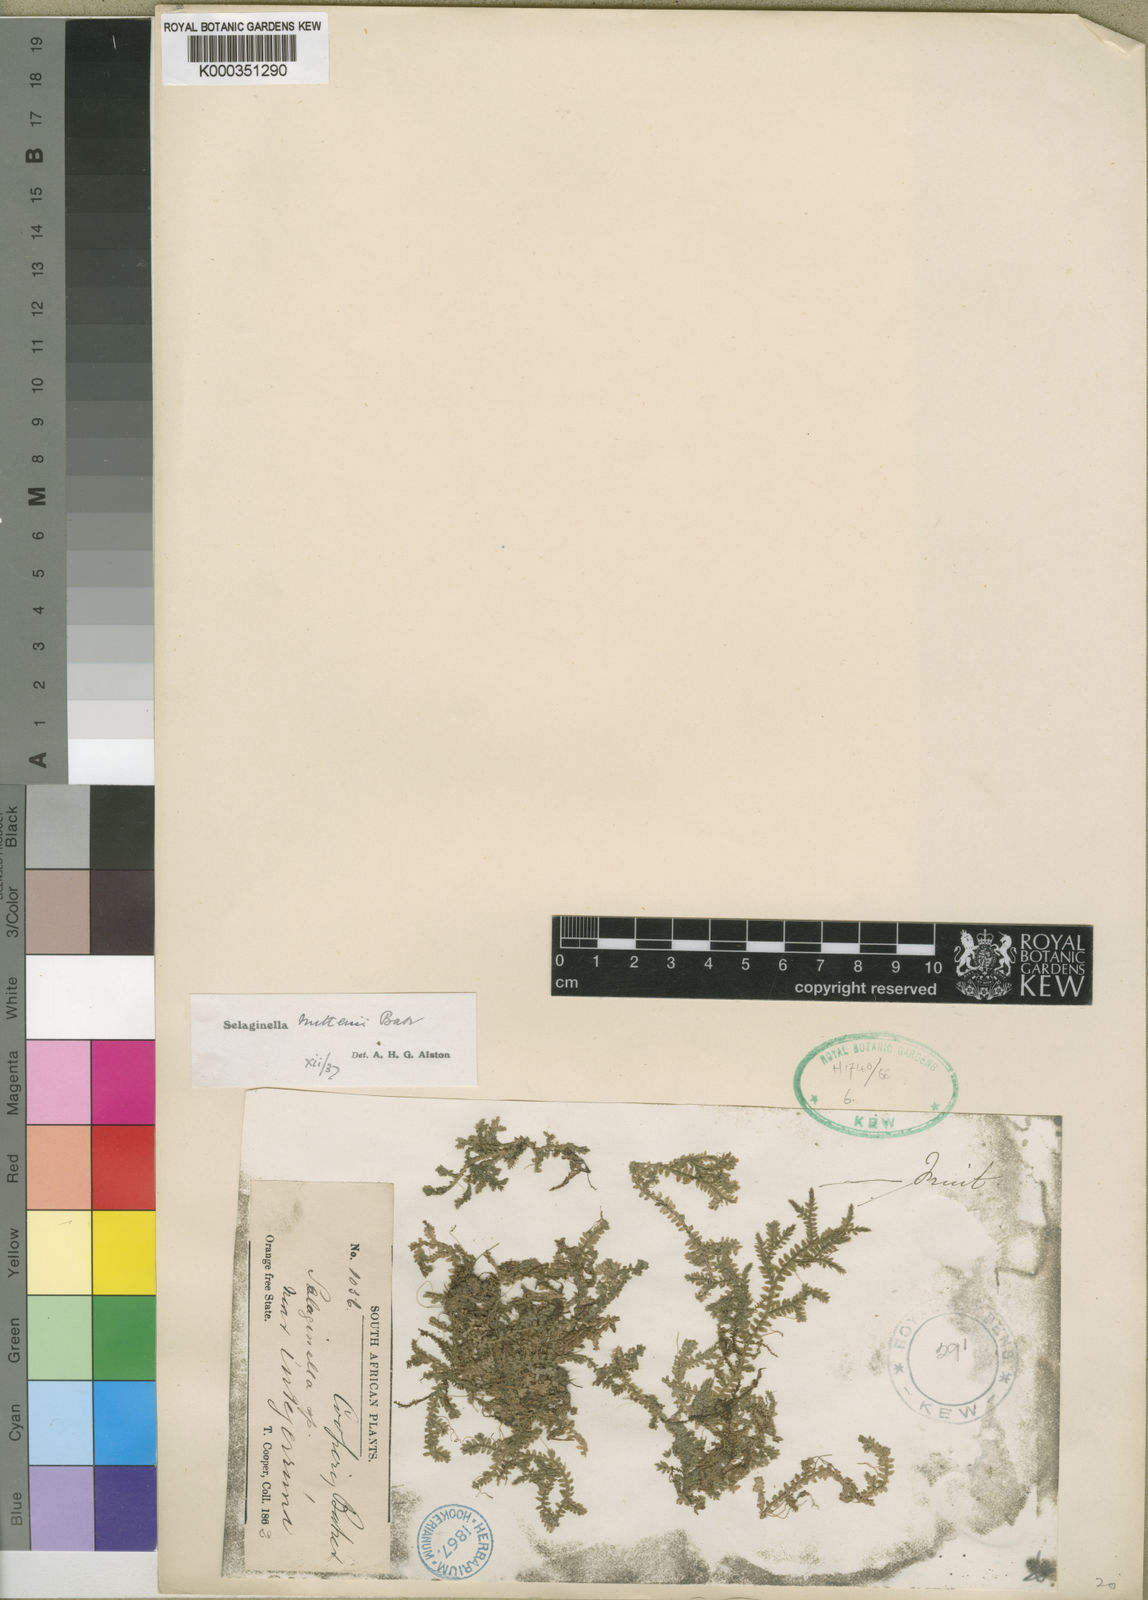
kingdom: Plantae
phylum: Tracheophyta
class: Lycopodiopsida
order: Selaginellales
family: Selaginellaceae
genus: Selaginella
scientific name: Selaginella mittenii
